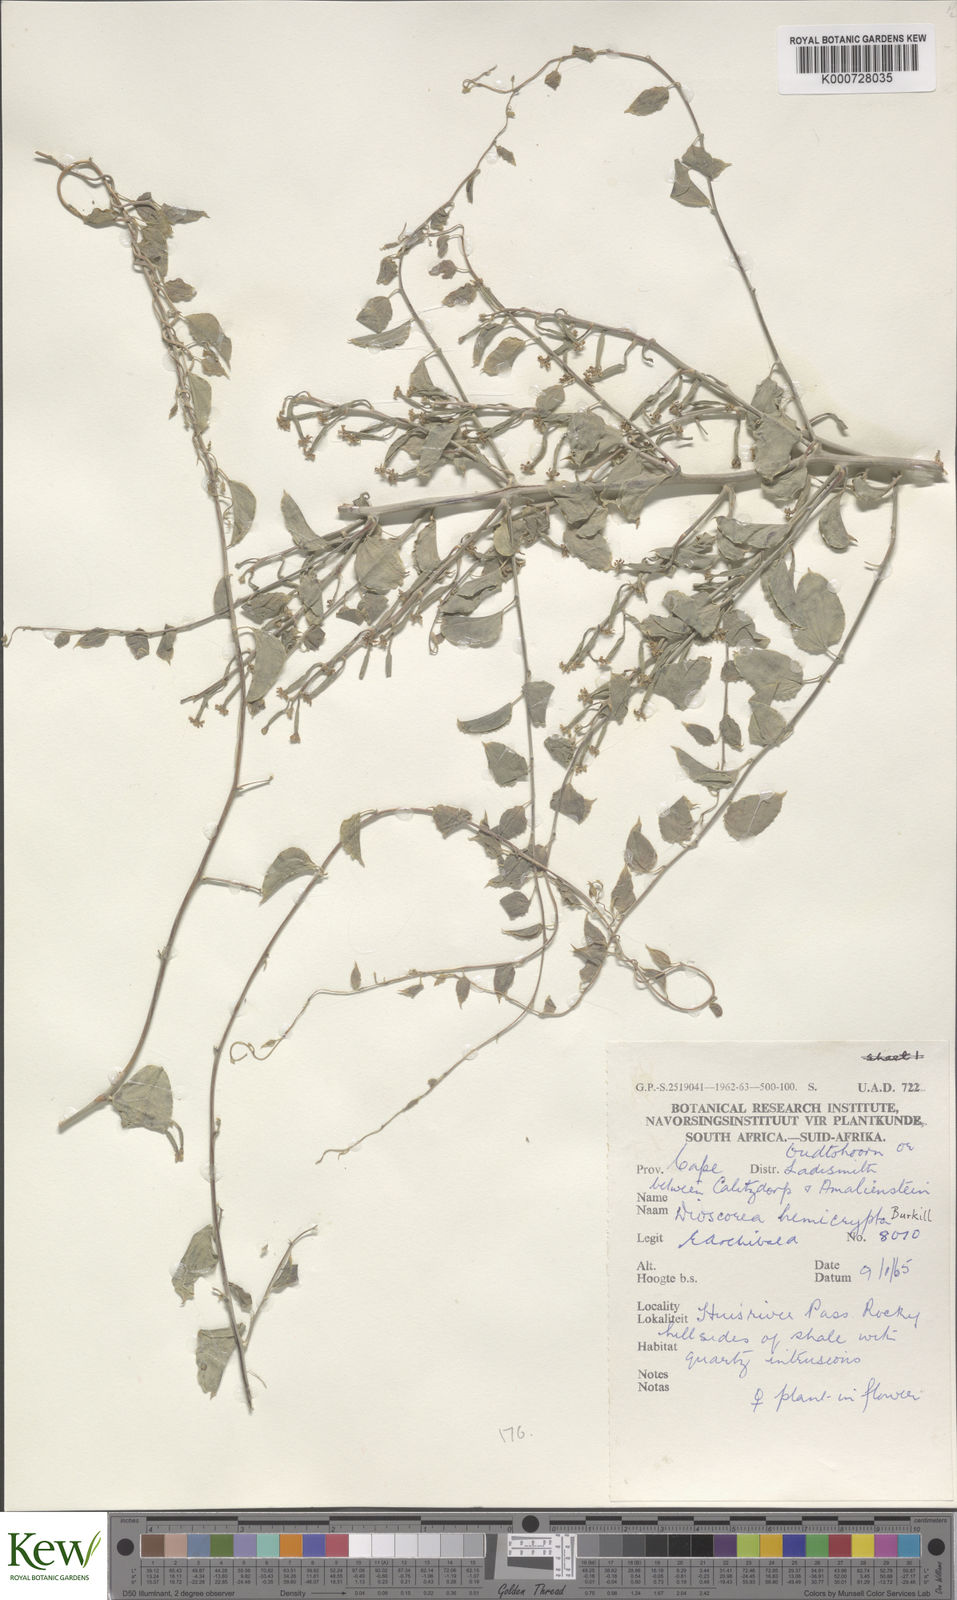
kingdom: Plantae
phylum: Tracheophyta
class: Liliopsida
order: Dioscoreales
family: Dioscoreaceae
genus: Dioscorea
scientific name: Dioscorea hemicrypta
